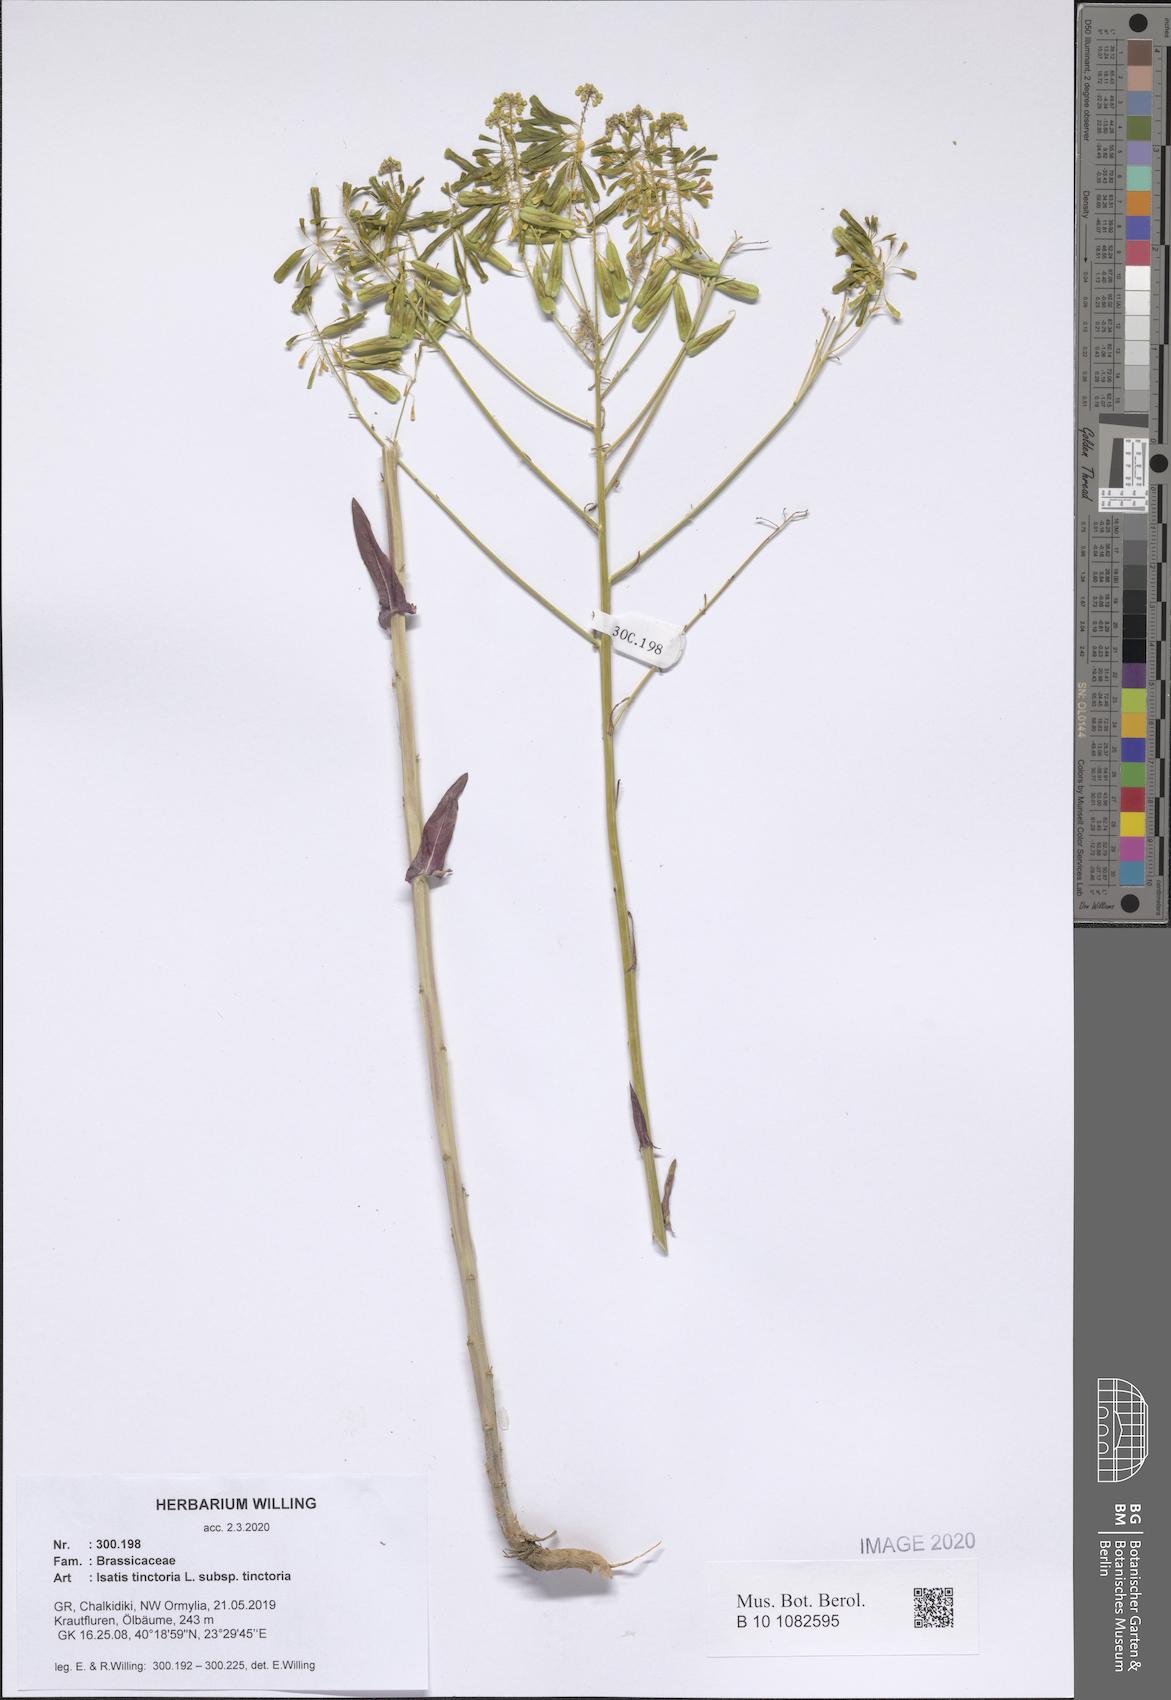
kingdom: Plantae
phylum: Tracheophyta
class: Magnoliopsida
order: Brassicales
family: Brassicaceae
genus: Isatis
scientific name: Isatis tinctoria
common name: Woad
